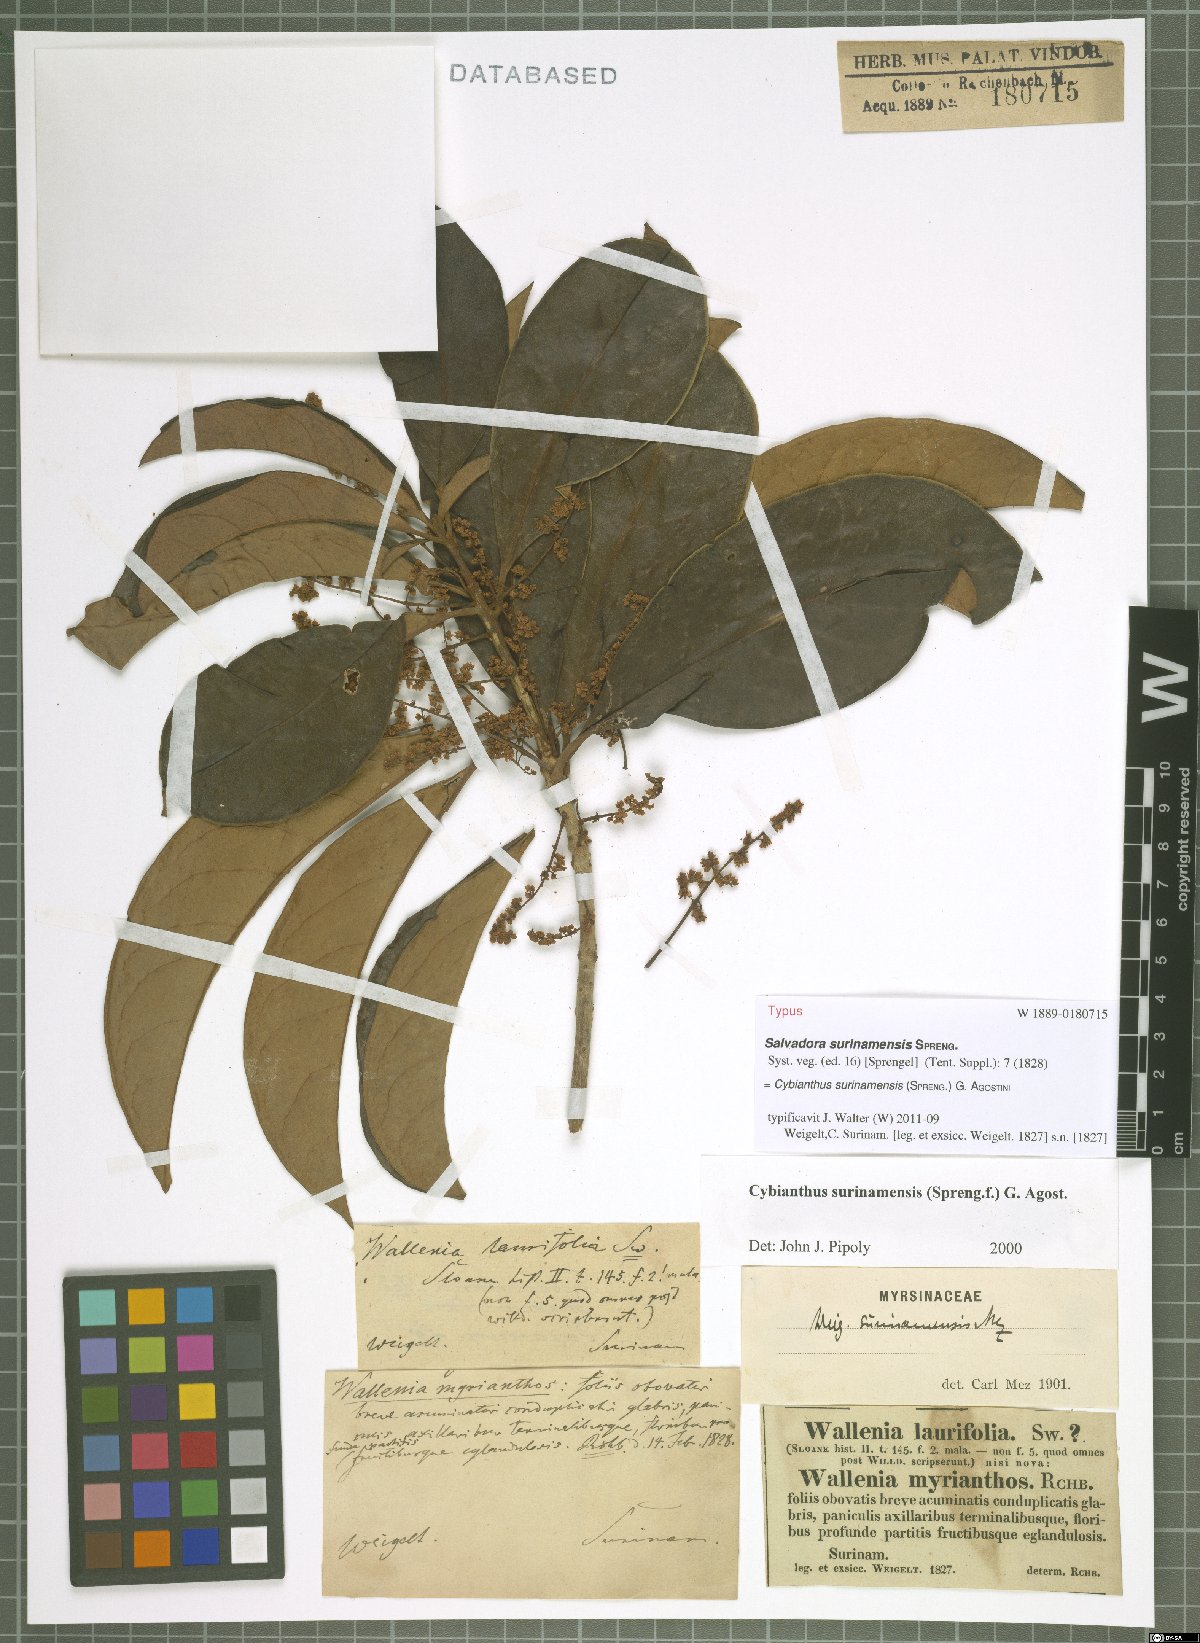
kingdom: Plantae
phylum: Tracheophyta
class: Magnoliopsida
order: Ericales
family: Primulaceae
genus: Cybianthus
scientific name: Cybianthus surinamensis
